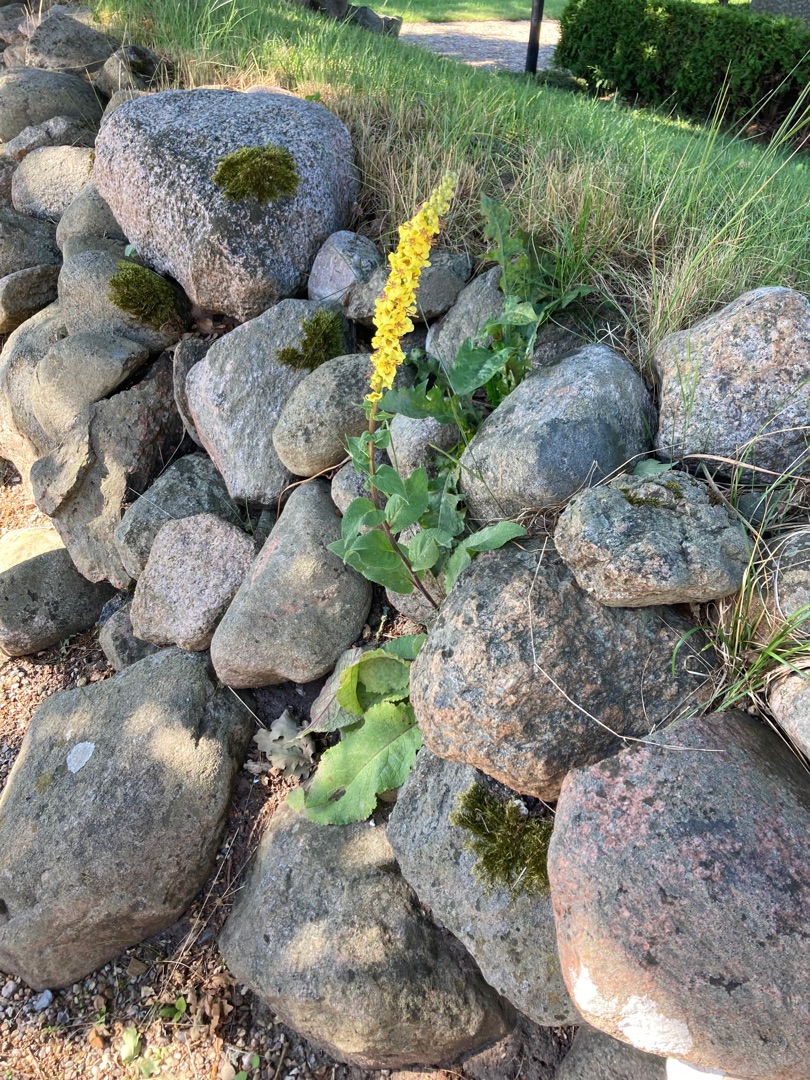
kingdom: Plantae
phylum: Tracheophyta
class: Magnoliopsida
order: Lamiales
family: Scrophulariaceae
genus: Verbascum
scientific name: Verbascum nigrum
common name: Mørk kongelys
